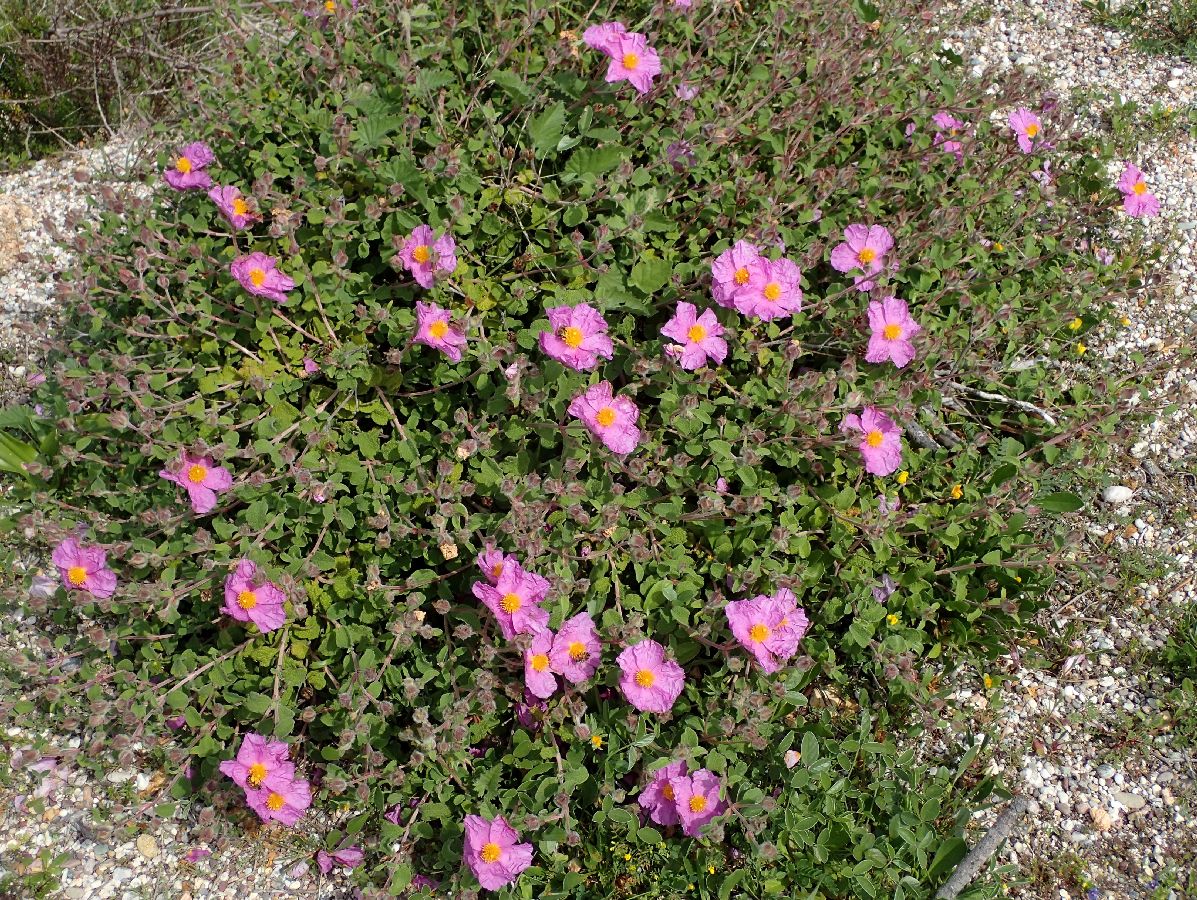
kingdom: Plantae
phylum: Tracheophyta
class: Magnoliopsida
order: Malvales
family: Cistaceae
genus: Cistus
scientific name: Cistus creticus
